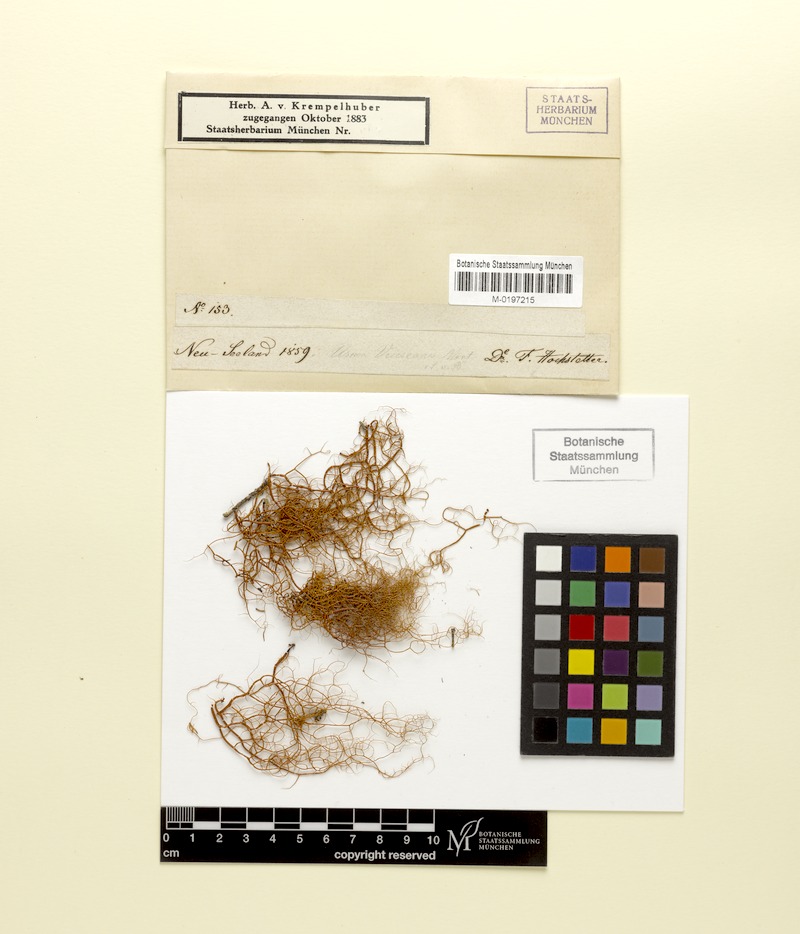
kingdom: Fungi
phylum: Ascomycota
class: Lecanoromycetes
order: Lecanorales
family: Parmeliaceae
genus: Usnea
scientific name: Usnea vrieseana
